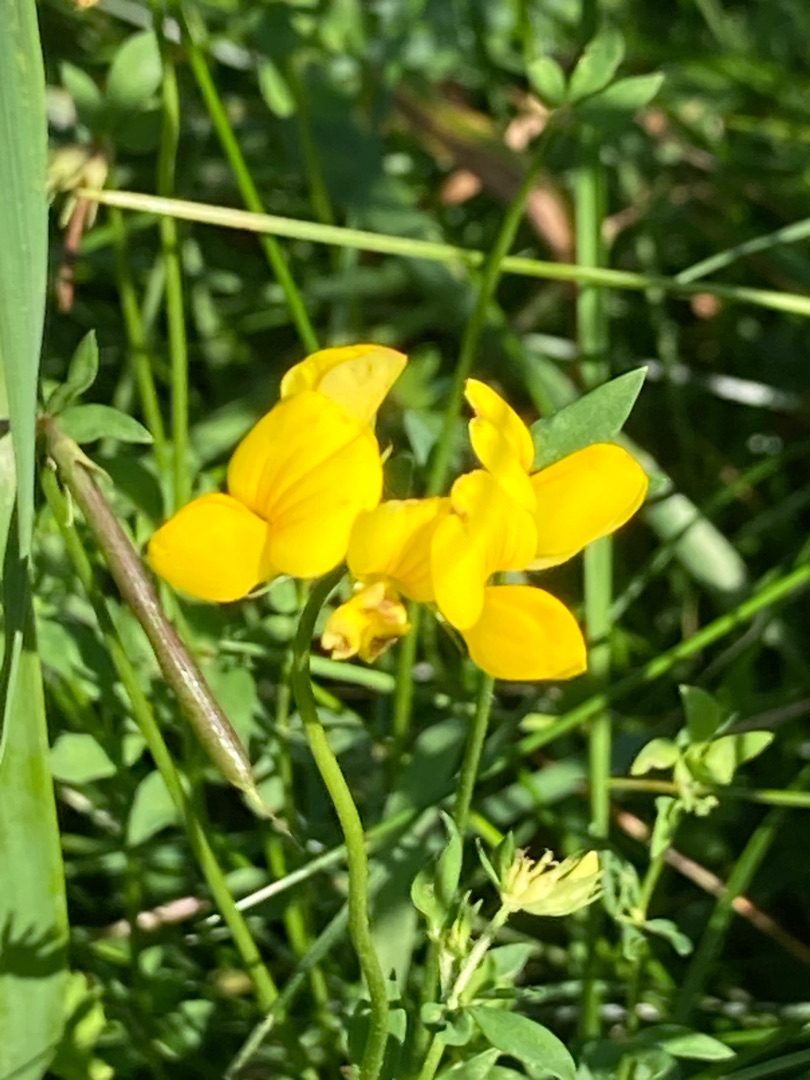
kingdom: Plantae
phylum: Tracheophyta
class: Magnoliopsida
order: Fabales
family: Fabaceae
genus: Lotus
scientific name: Lotus corniculatus
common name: Almindelig kællingetand
